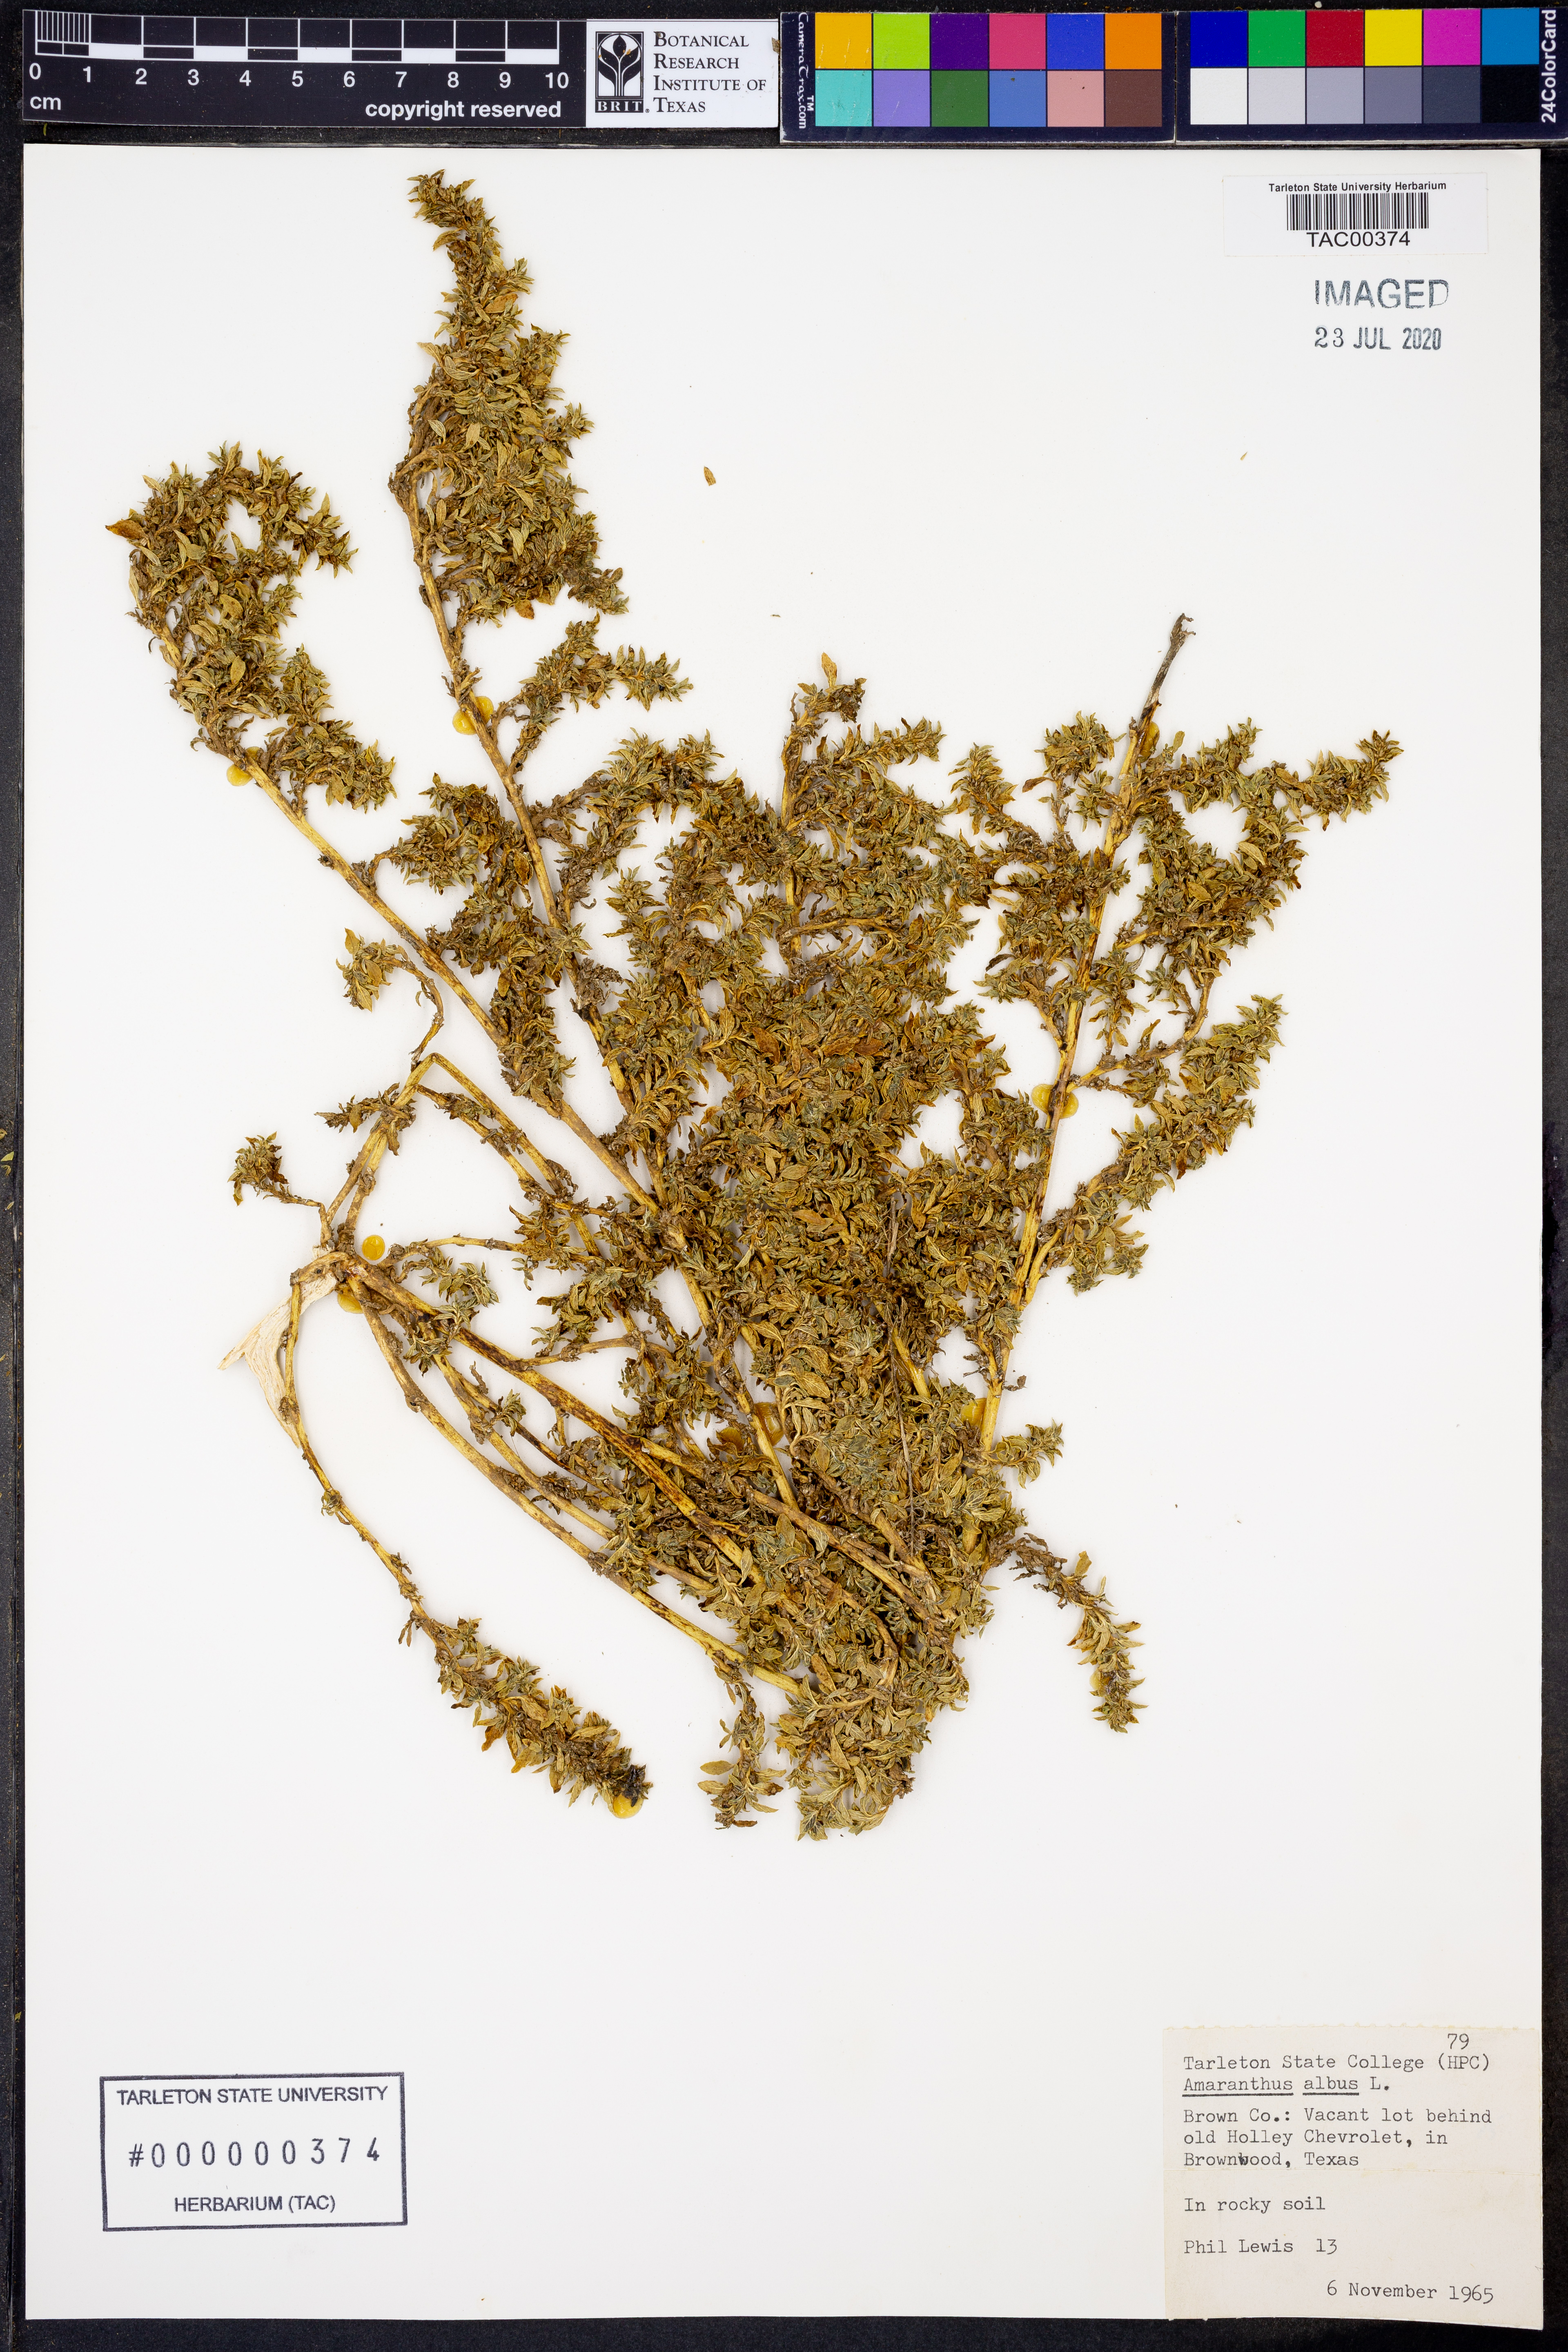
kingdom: Plantae
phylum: Tracheophyta
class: Magnoliopsida
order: Caryophyllales
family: Amaranthaceae
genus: Amaranthus
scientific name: Amaranthus albus
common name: White pigweed
